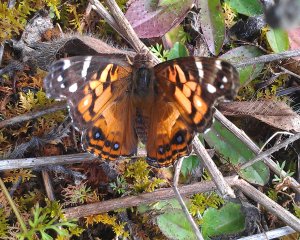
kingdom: Animalia
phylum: Arthropoda
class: Insecta
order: Lepidoptera
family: Nymphalidae
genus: Vanessa
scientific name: Vanessa virginiensis
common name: American Lady
